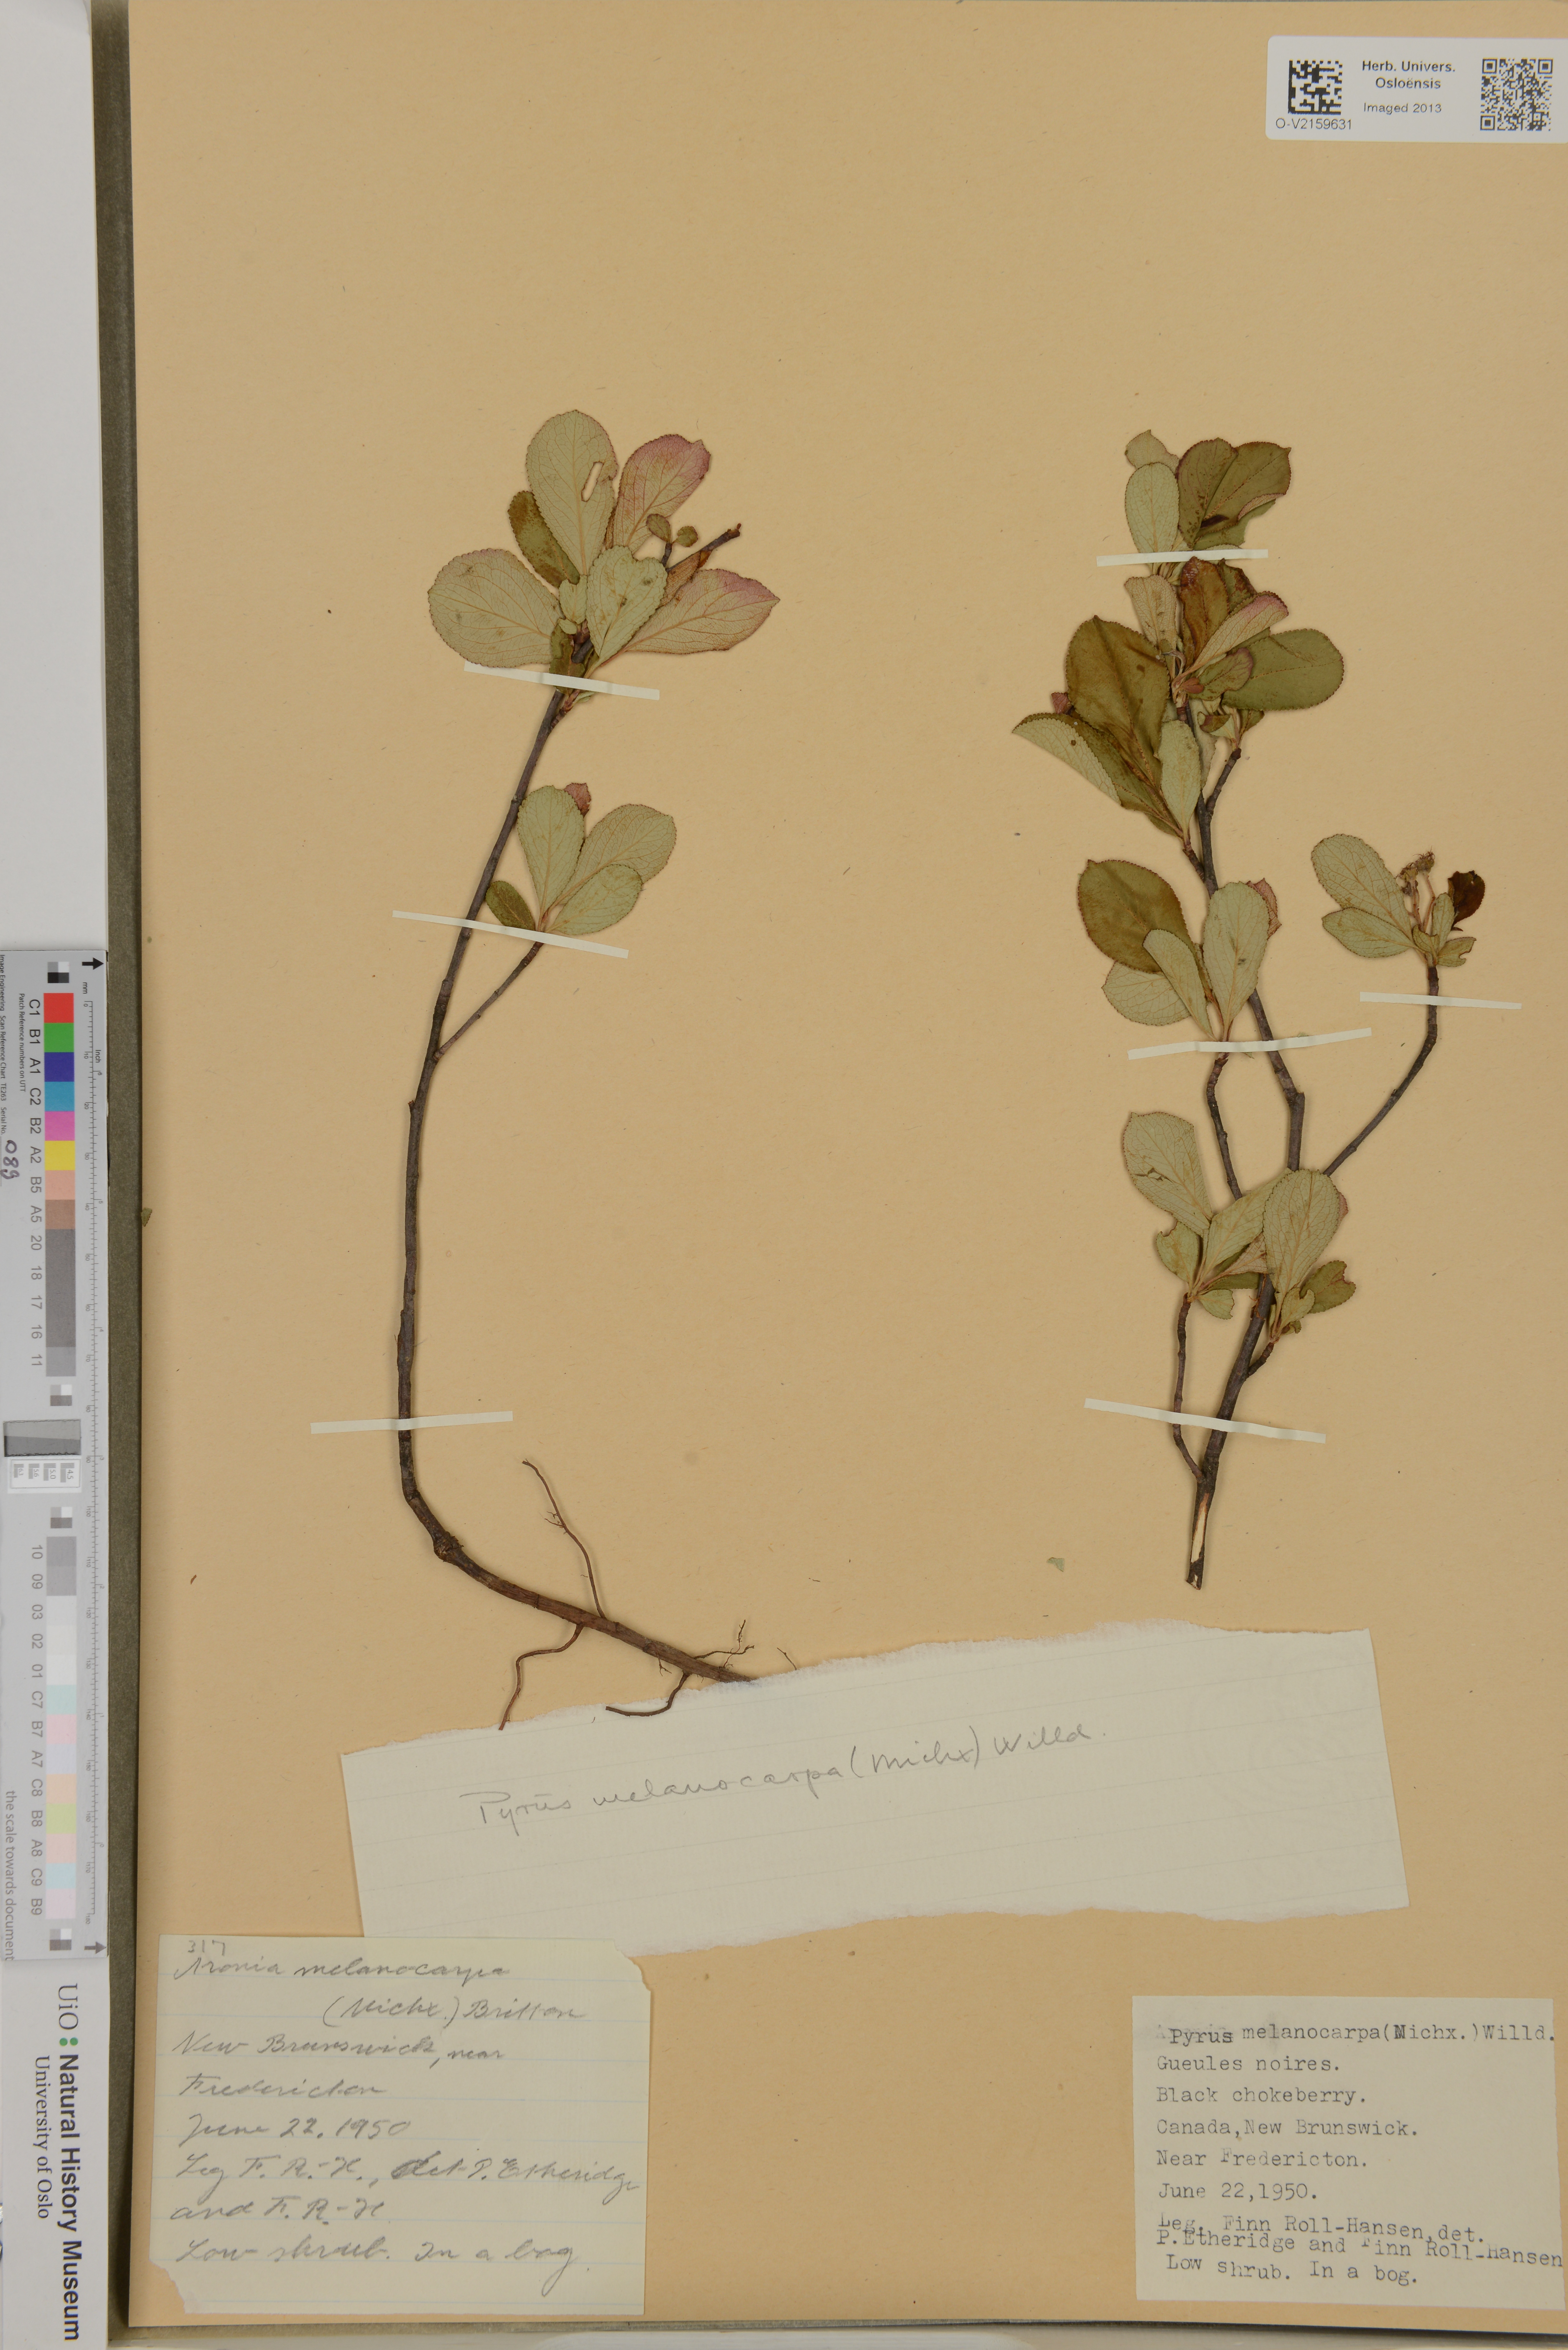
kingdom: Plantae
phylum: Tracheophyta
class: Magnoliopsida
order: Rosales
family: Rosaceae
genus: Aronia
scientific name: Aronia melanocarpa
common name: Black chokeberry
